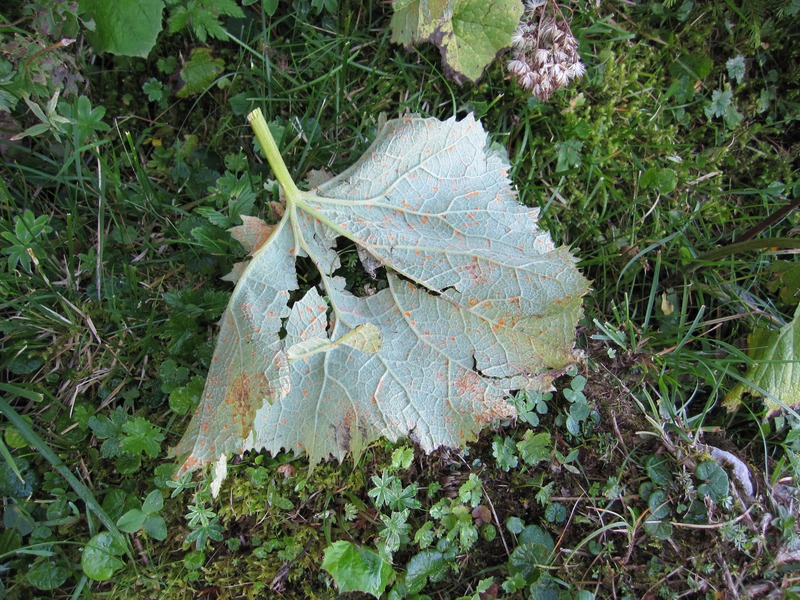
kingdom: Fungi
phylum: Basidiomycota
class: Pucciniomycetes
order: Pucciniales
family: Coleosporiaceae
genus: Coleosporium
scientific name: Coleosporium tussilaginis
